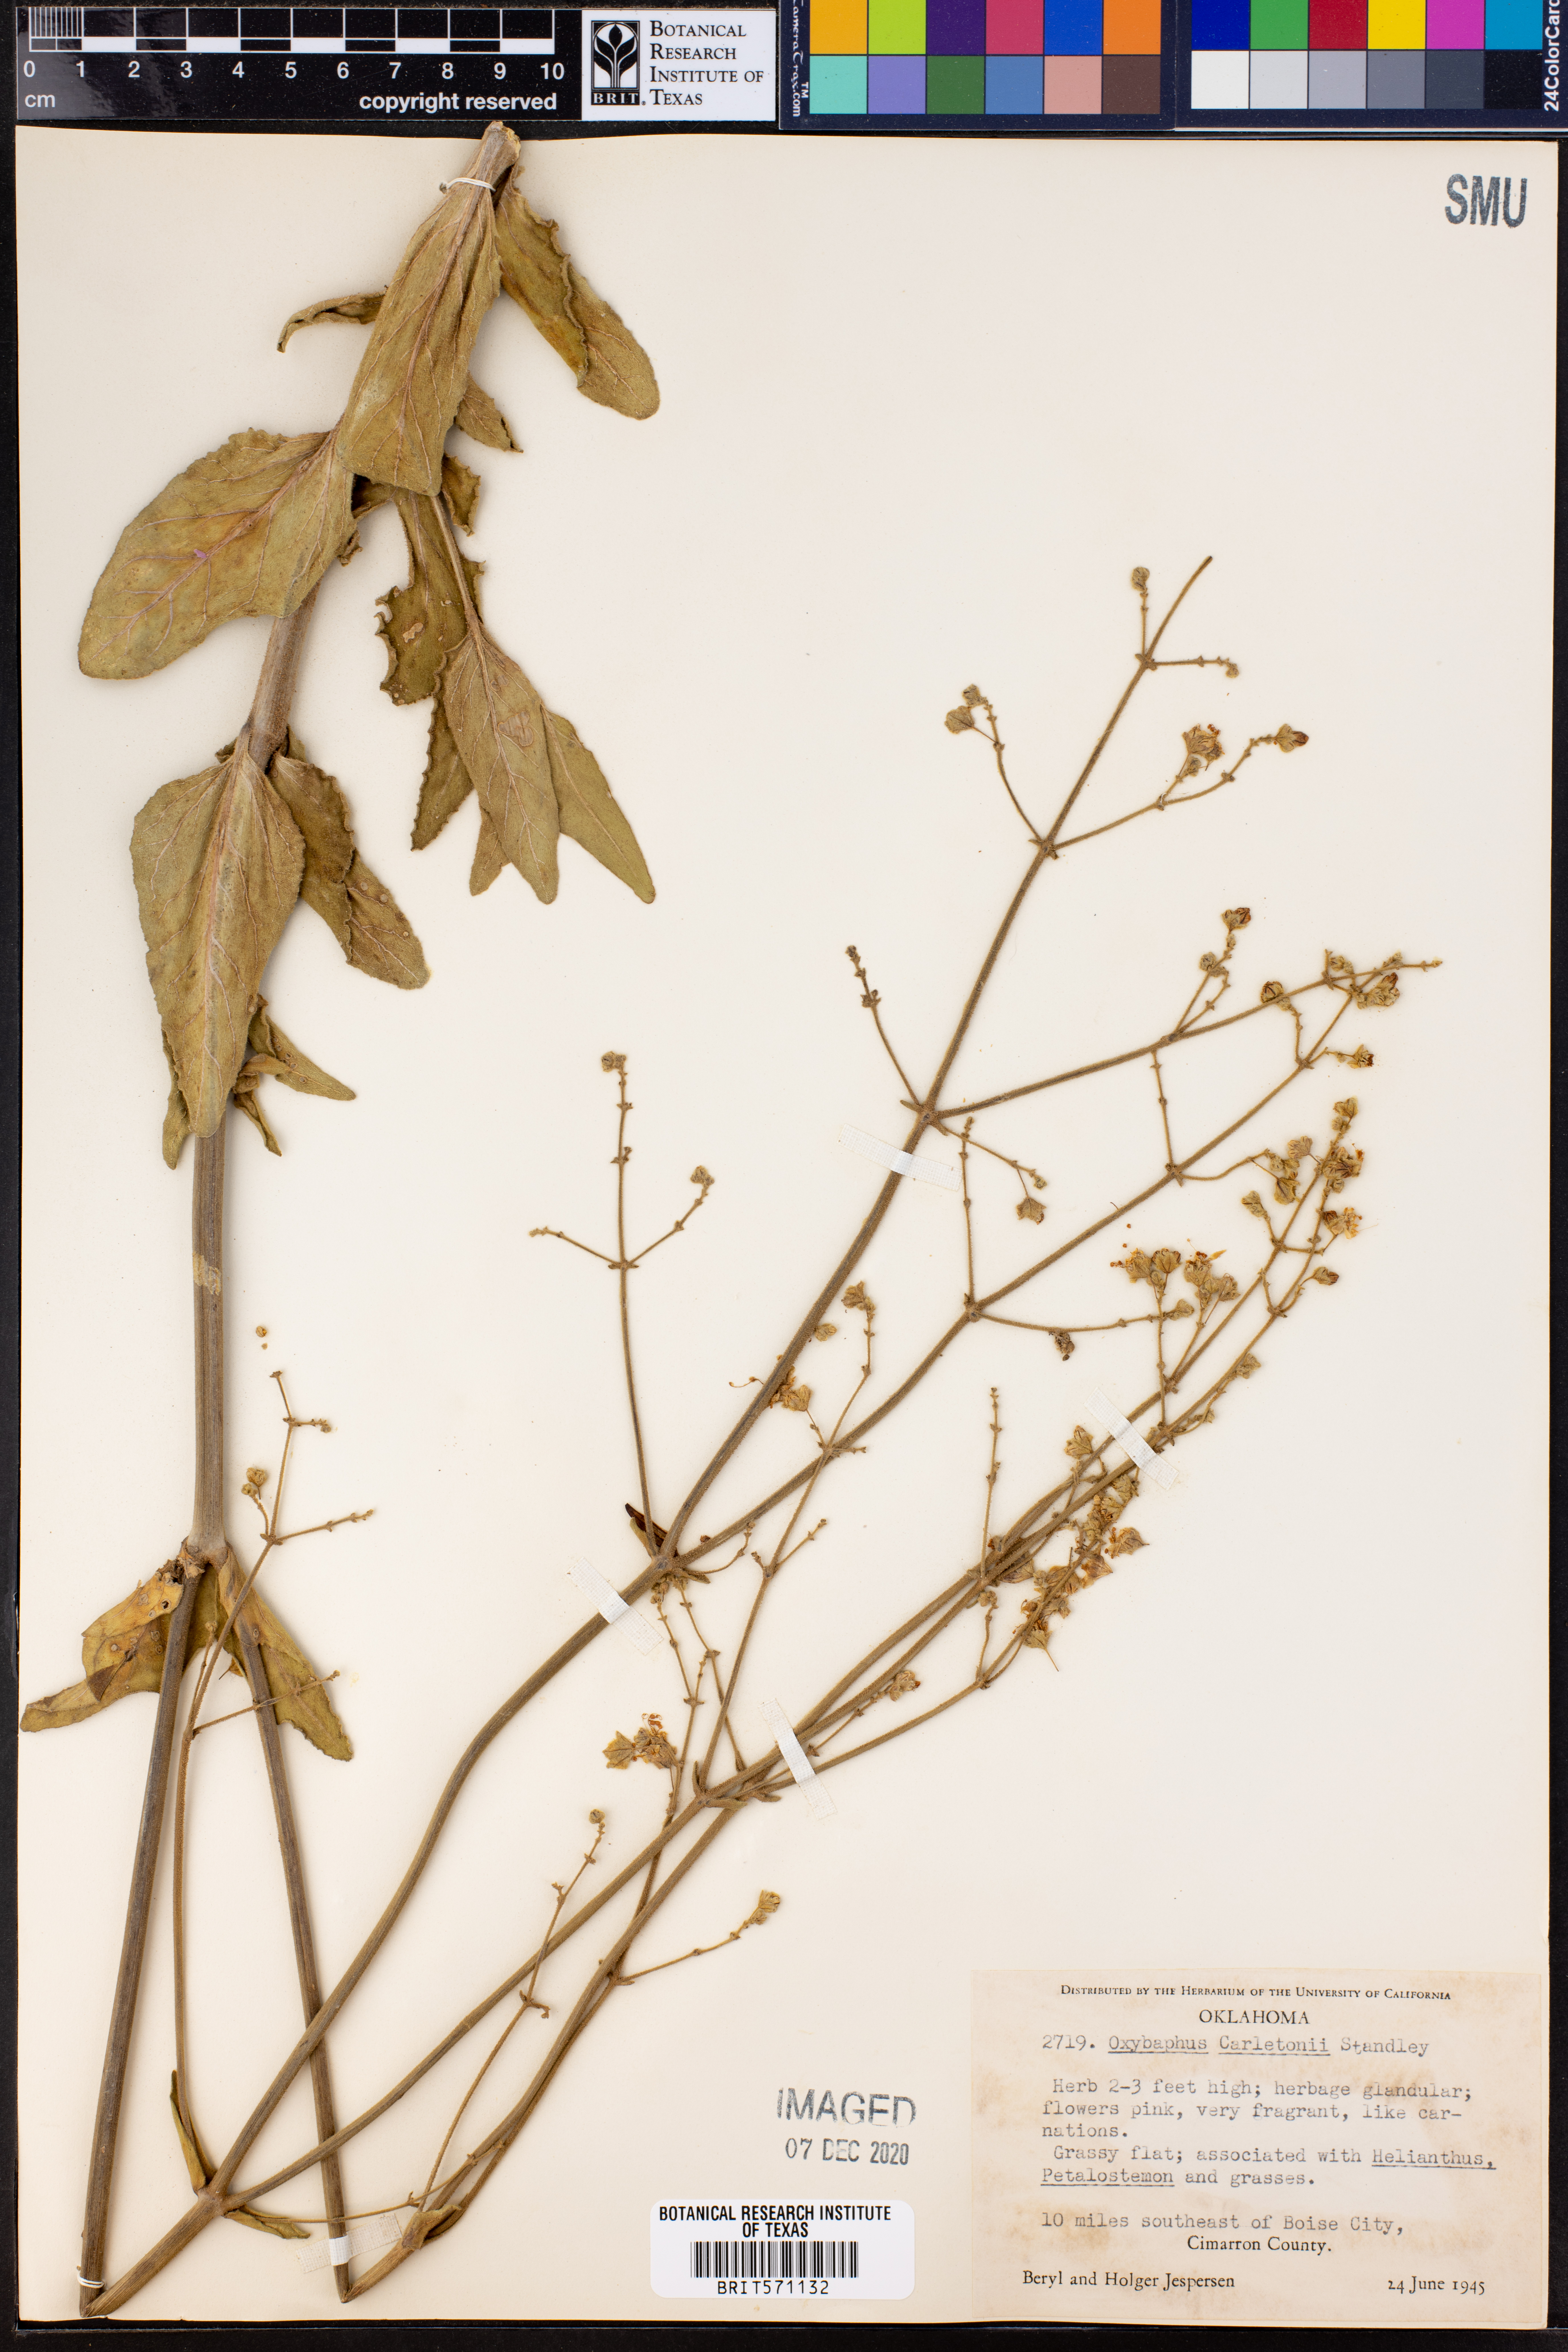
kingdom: Plantae
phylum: Tracheophyta
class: Magnoliopsida
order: Caryophyllales
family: Nyctaginaceae
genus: Mirabilis
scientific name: Mirabilis glabra
